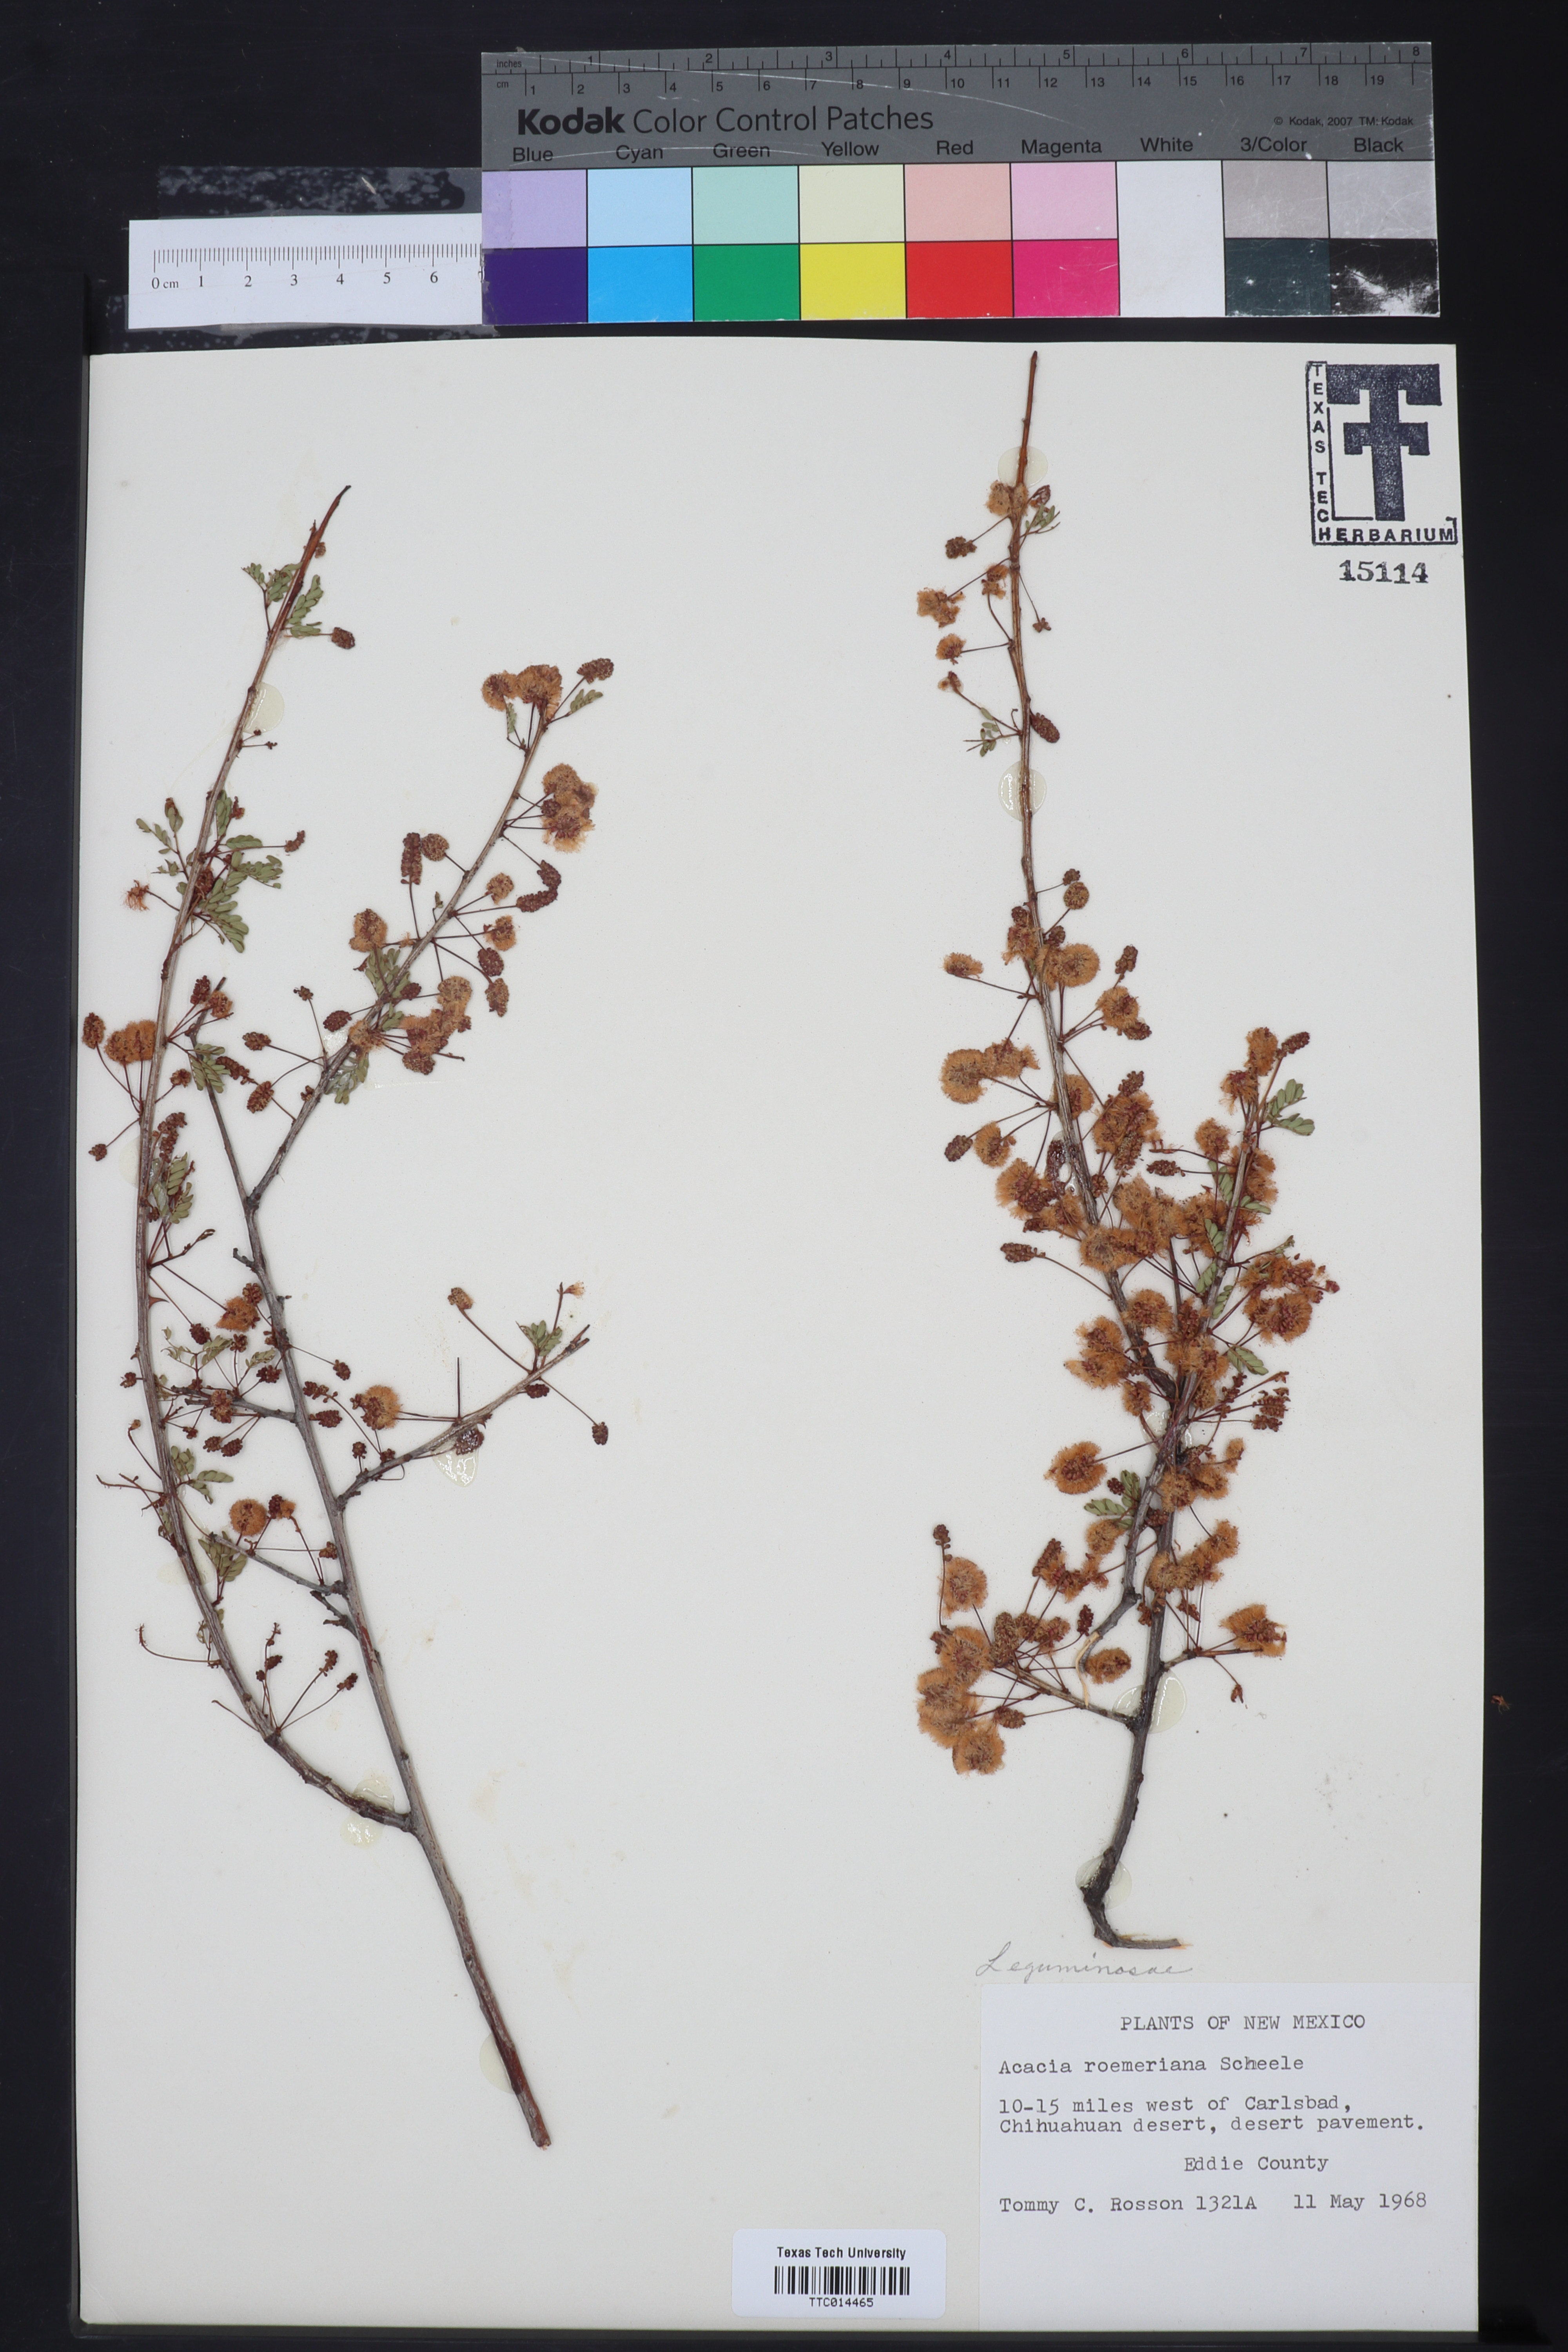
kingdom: Plantae
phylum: Tracheophyta
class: Magnoliopsida
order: Fabales
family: Fabaceae
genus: Senegalia
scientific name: Senegalia roemeriana
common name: Roemer's acacia
